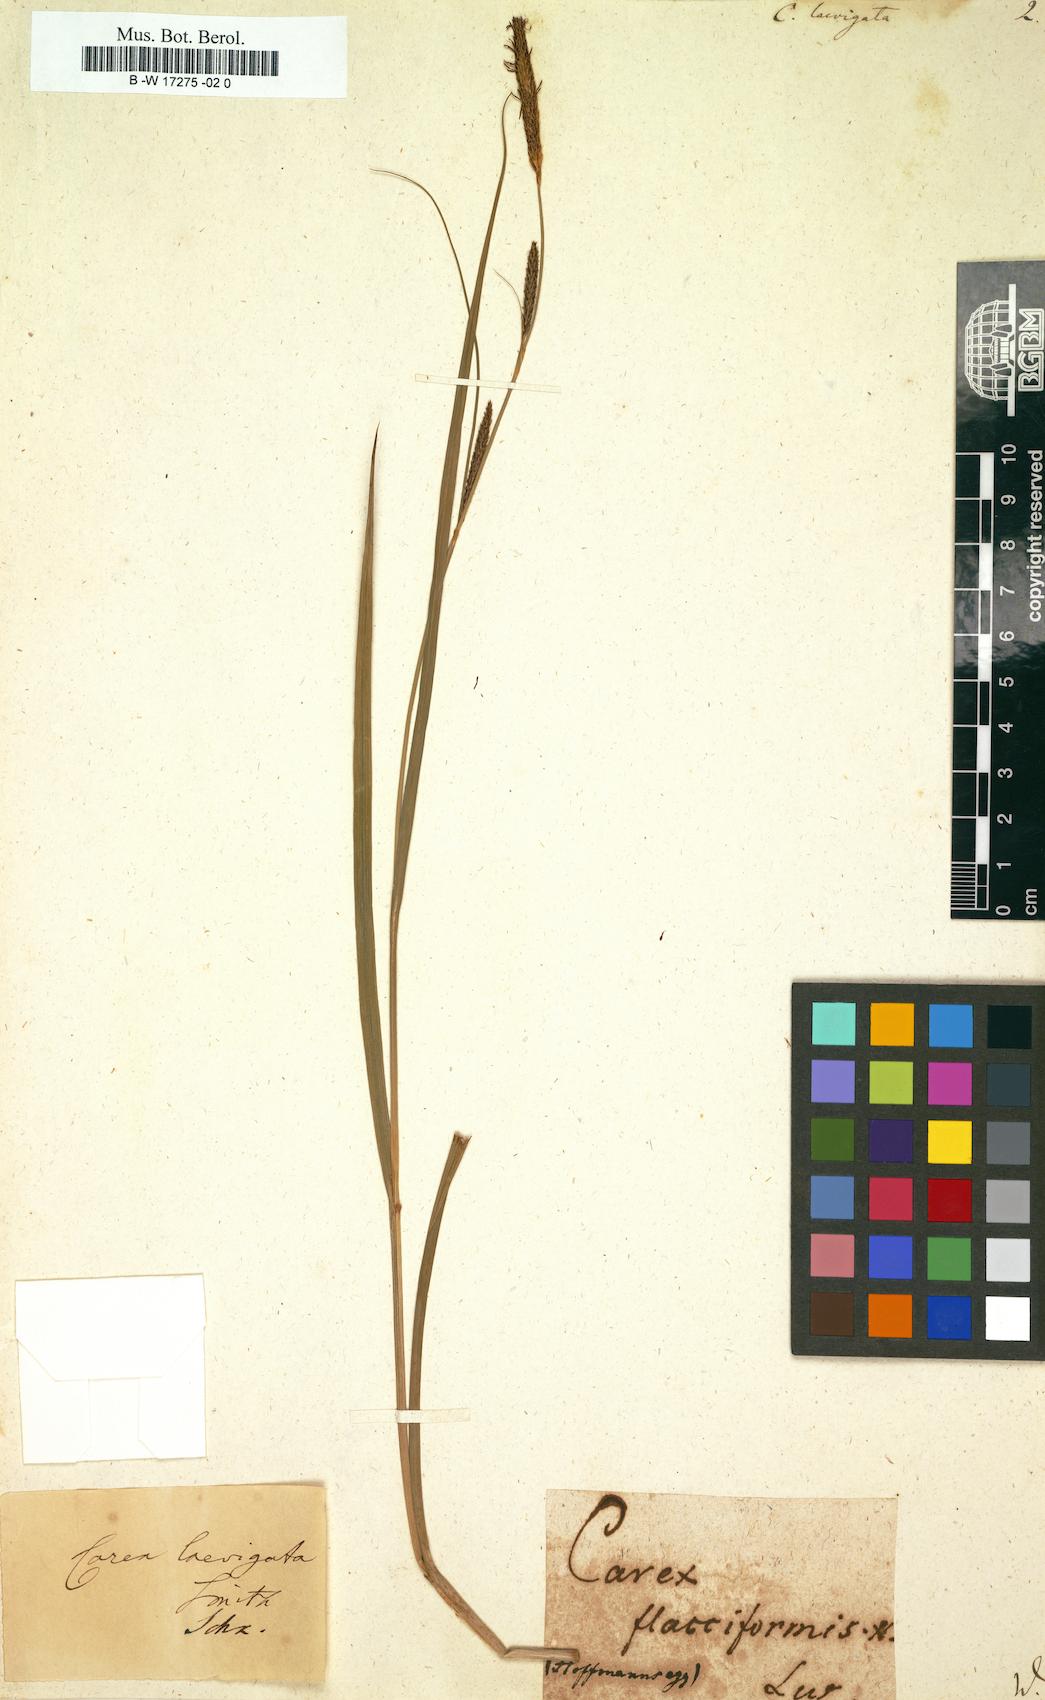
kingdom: Plantae
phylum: Tracheophyta
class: Liliopsida
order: Poales
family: Cyperaceae
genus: Carex
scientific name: Carex laevigata
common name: Smooth-stalked sedge
